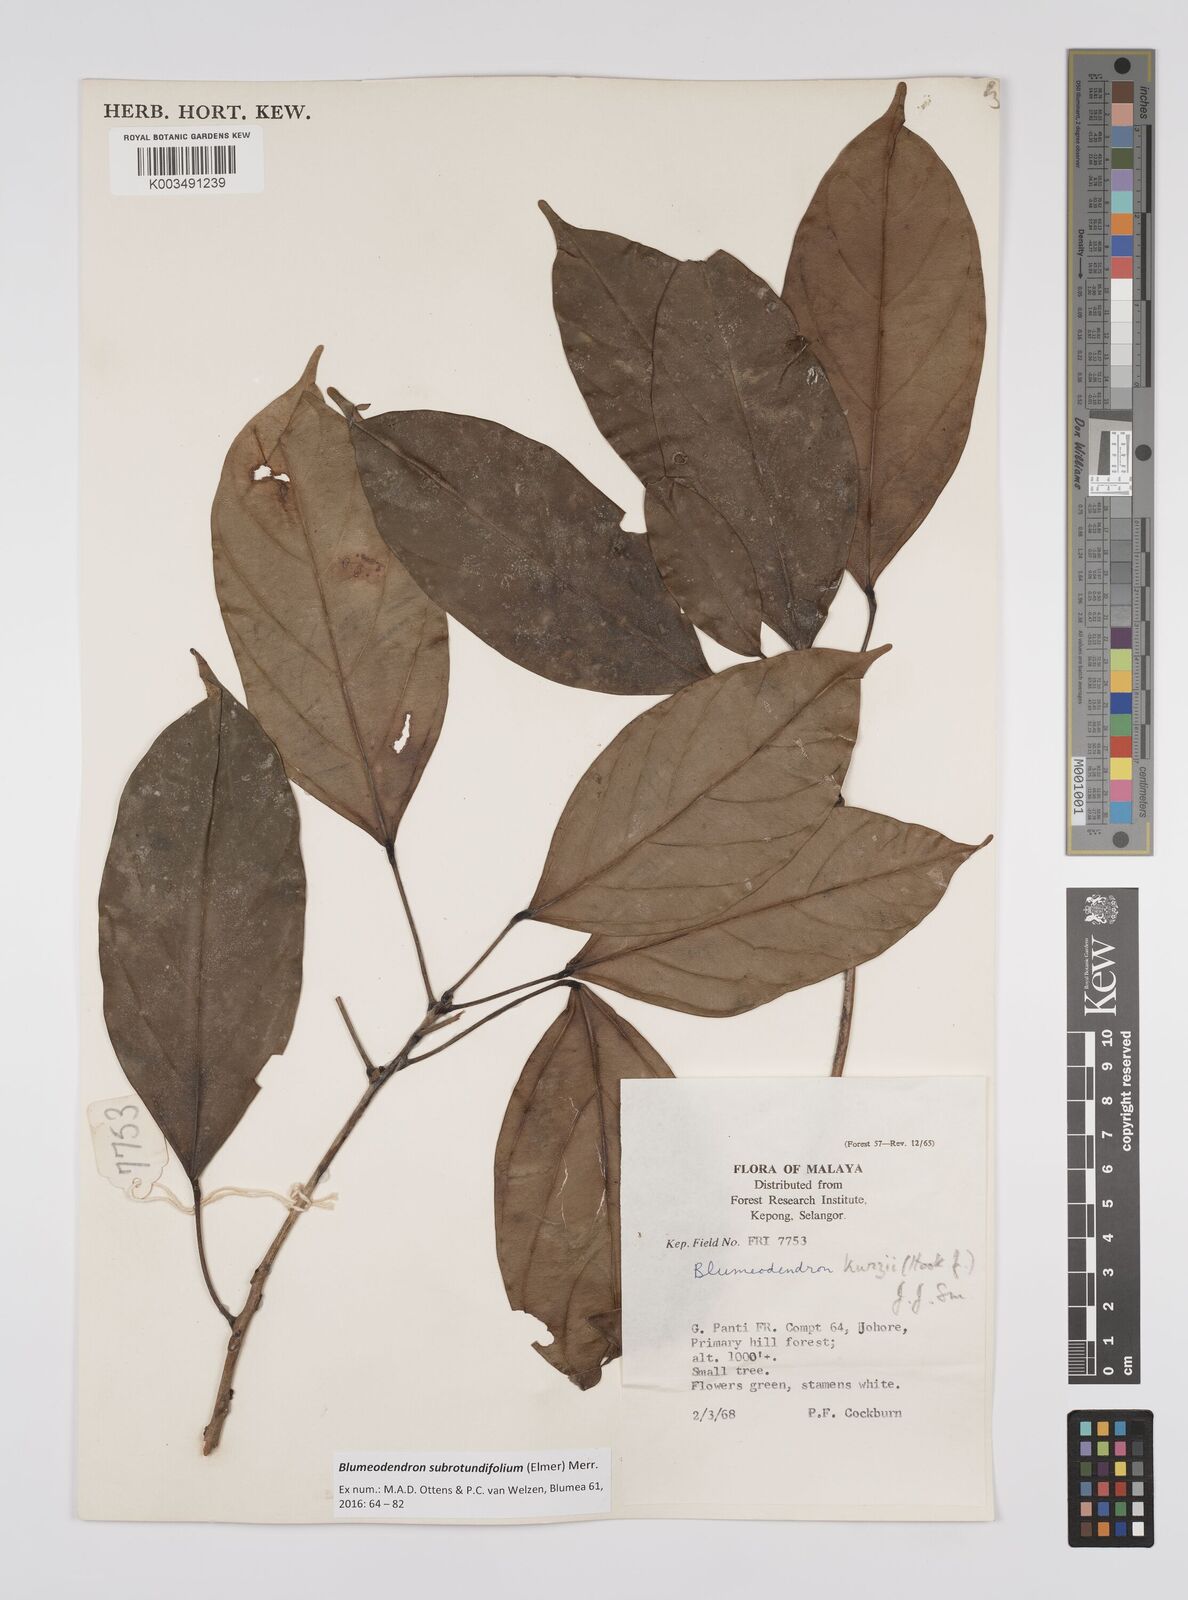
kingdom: Plantae
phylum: Tracheophyta
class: Magnoliopsida
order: Malpighiales
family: Euphorbiaceae
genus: Blumeodendron
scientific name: Blumeodendron subrotundifolium
